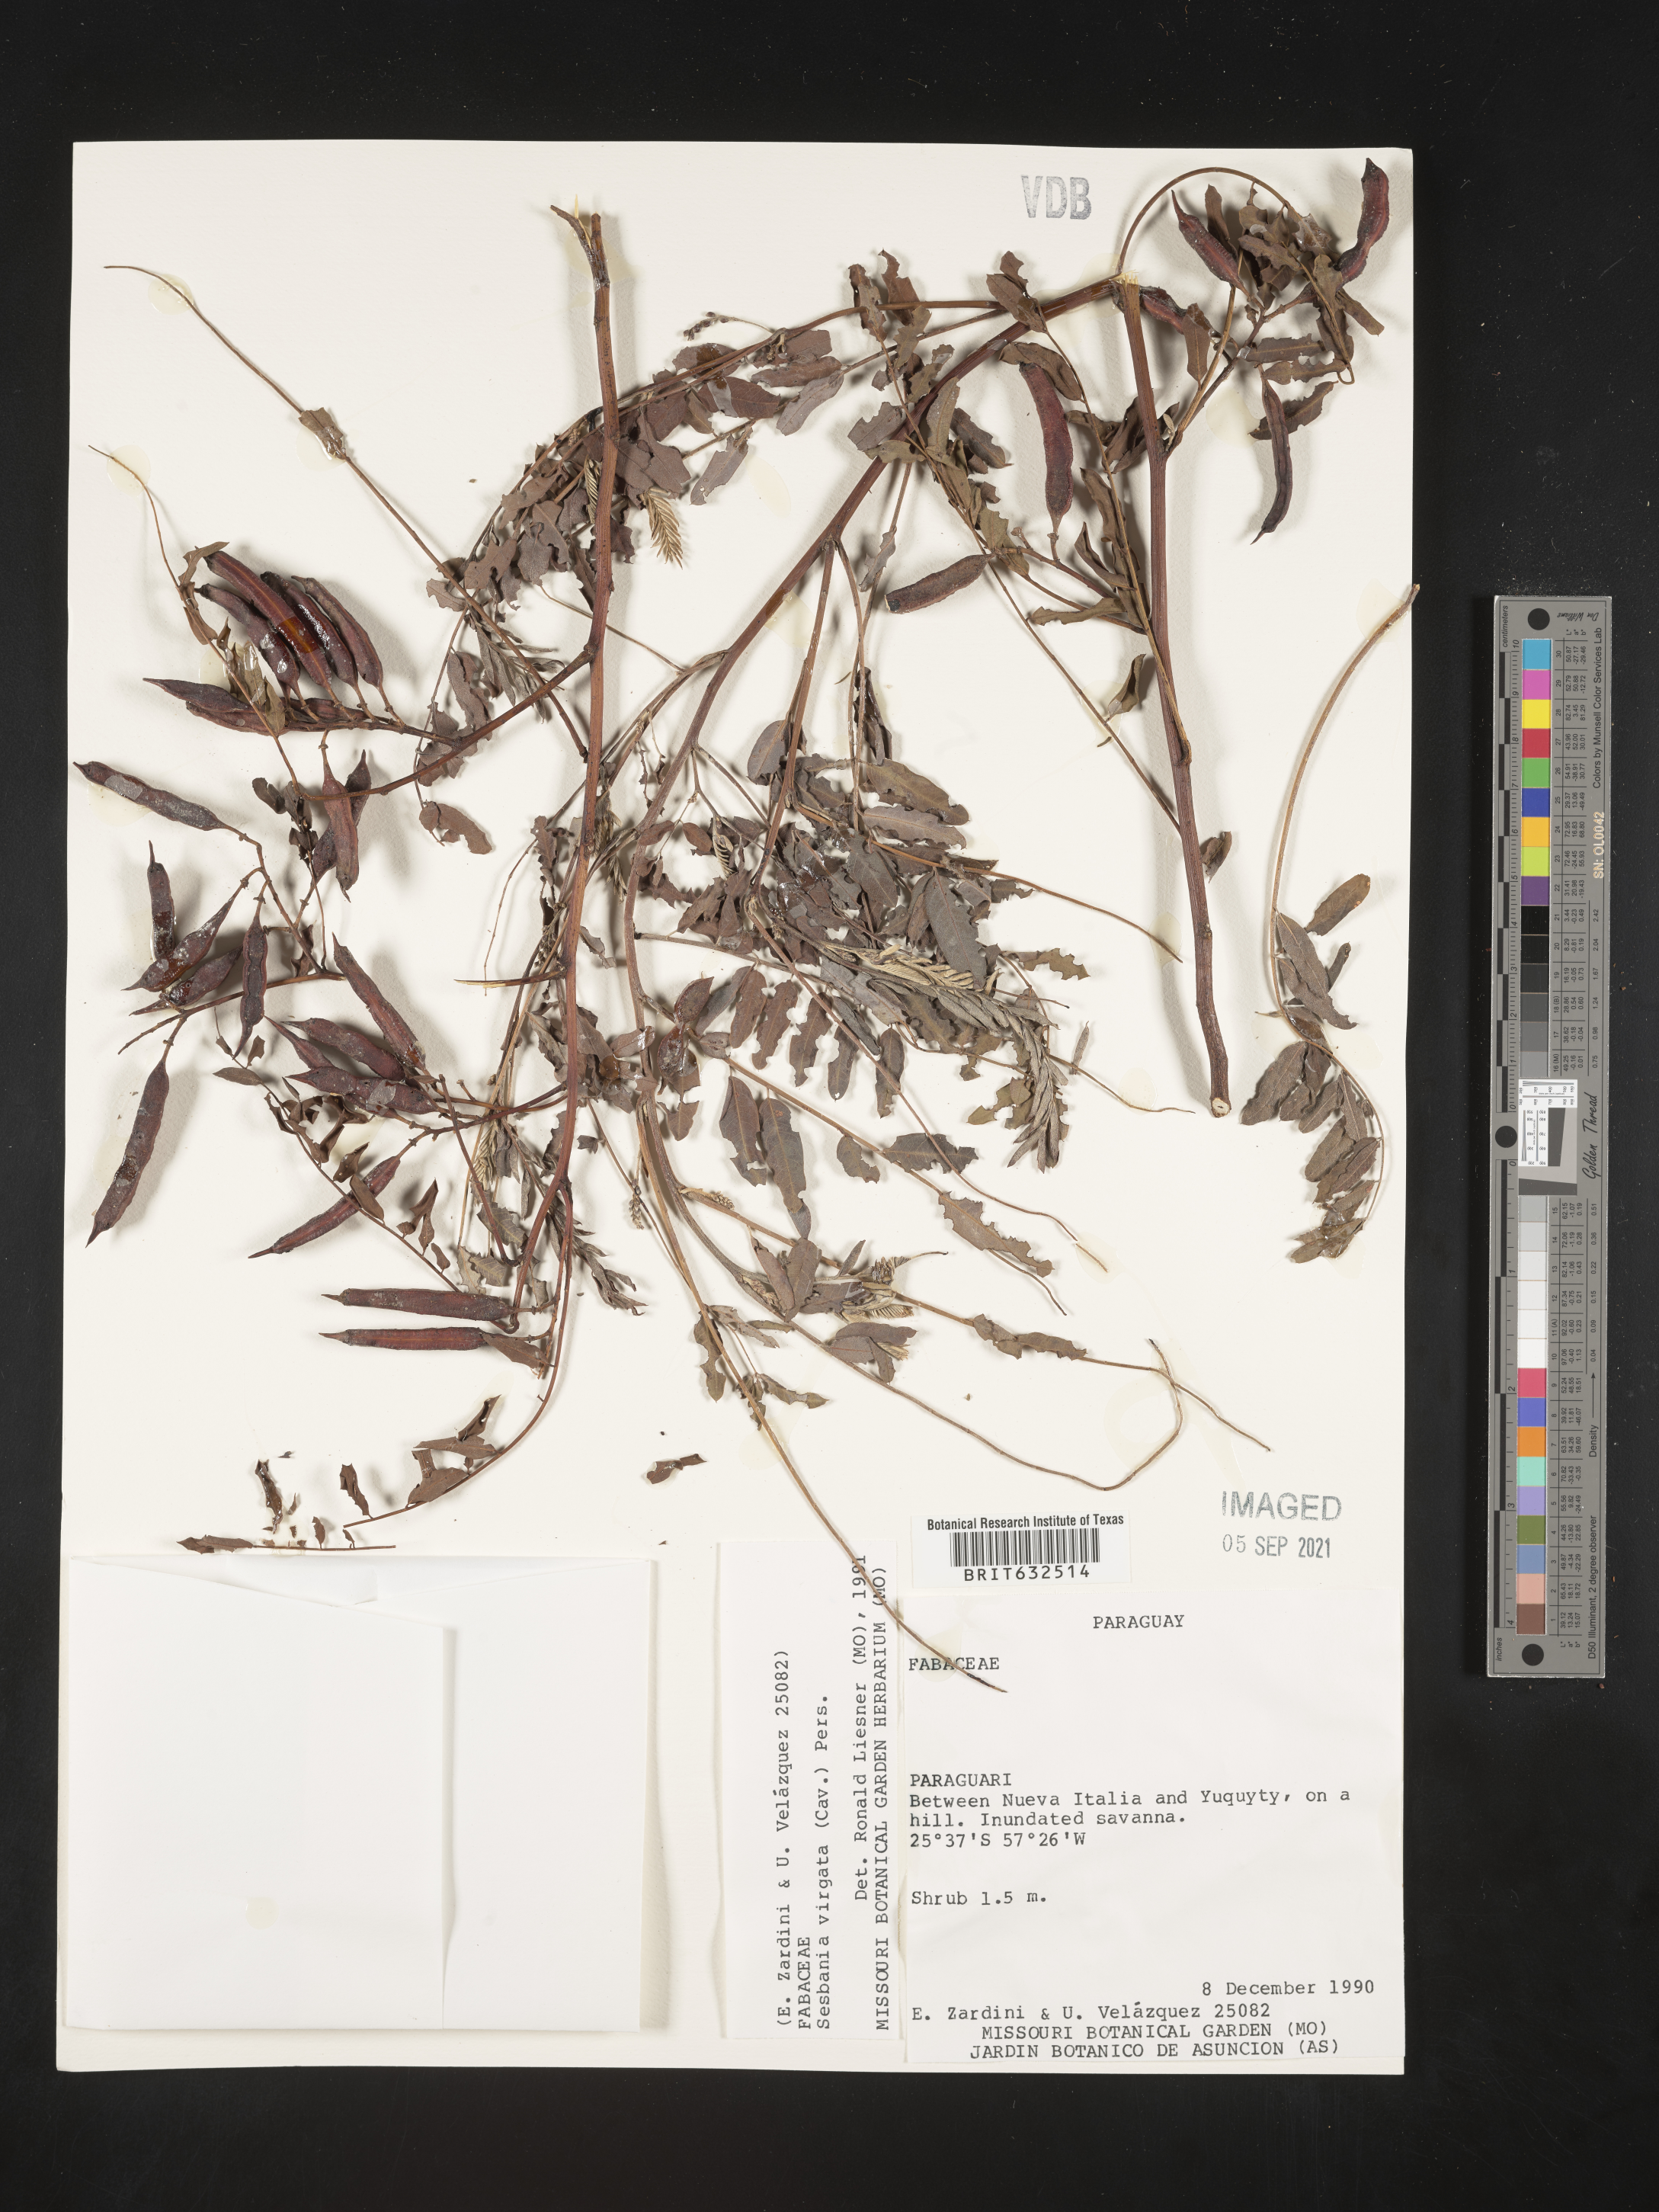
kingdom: Plantae
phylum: Tracheophyta
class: Magnoliopsida
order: Fabales
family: Fabaceae
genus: Sesbania
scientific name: Sesbania
